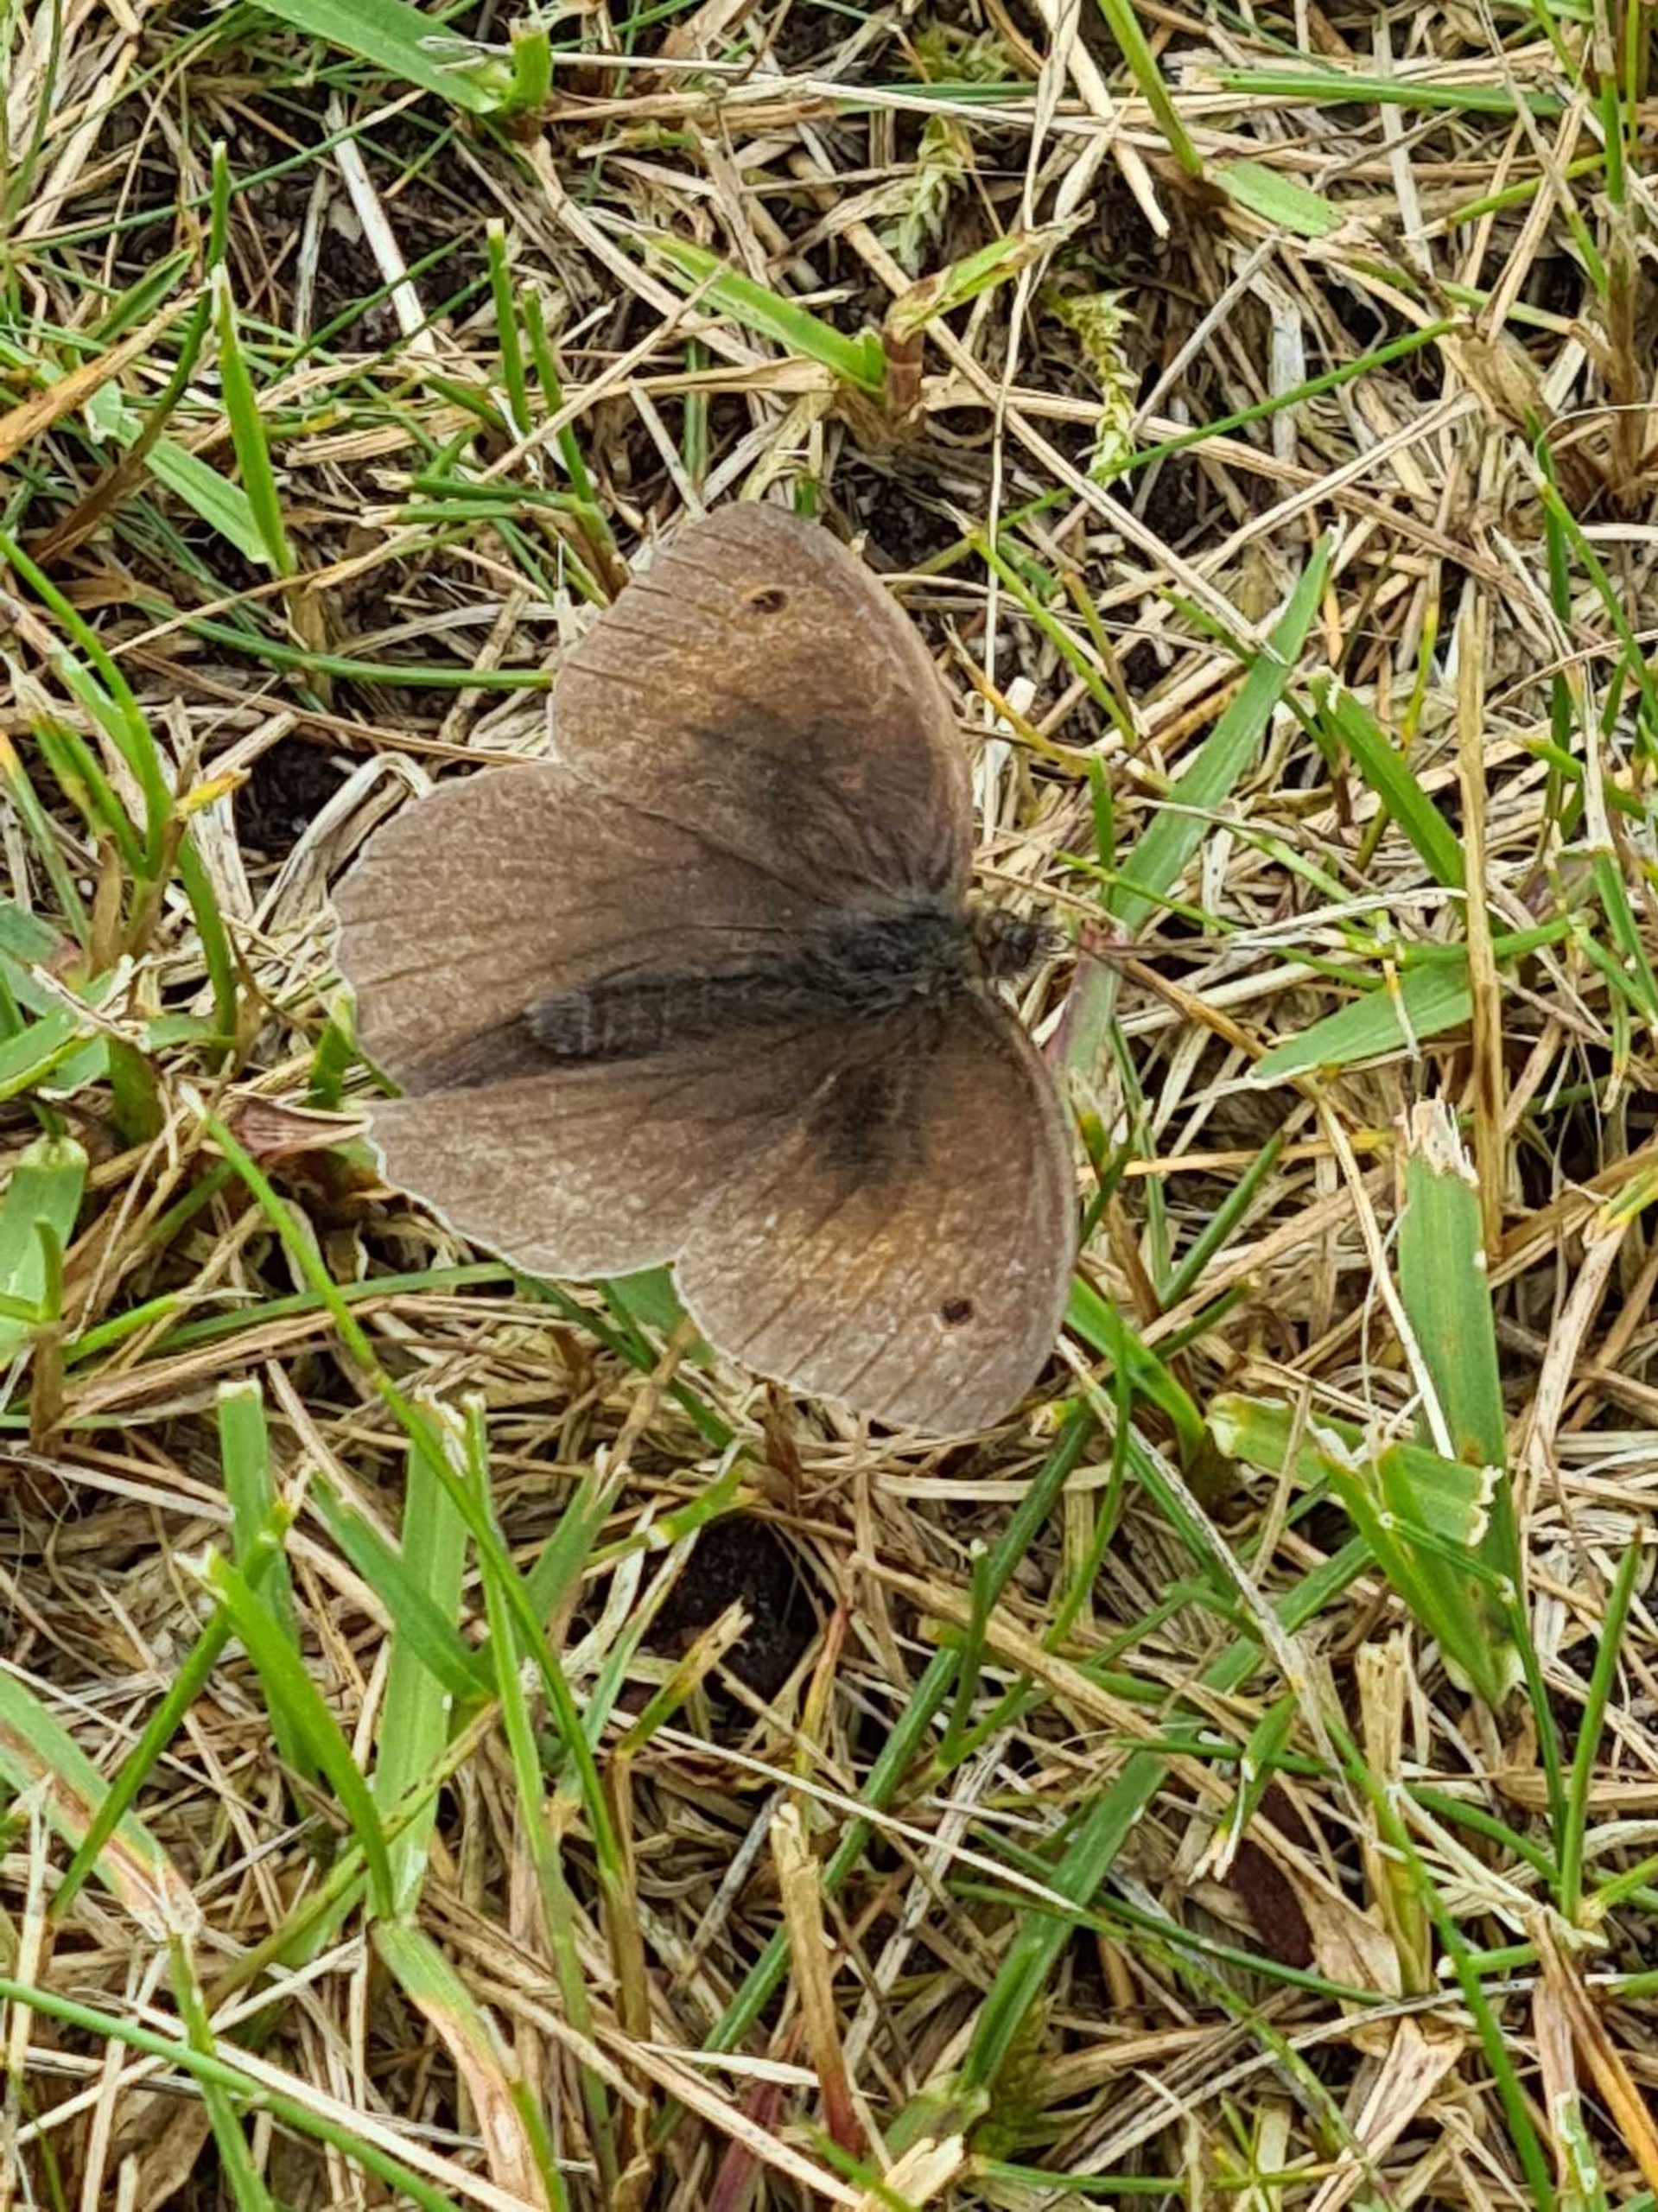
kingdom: Animalia
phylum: Arthropoda
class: Insecta
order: Lepidoptera
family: Nymphalidae
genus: Maniola
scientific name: Maniola jurtina
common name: Græsrandøje
